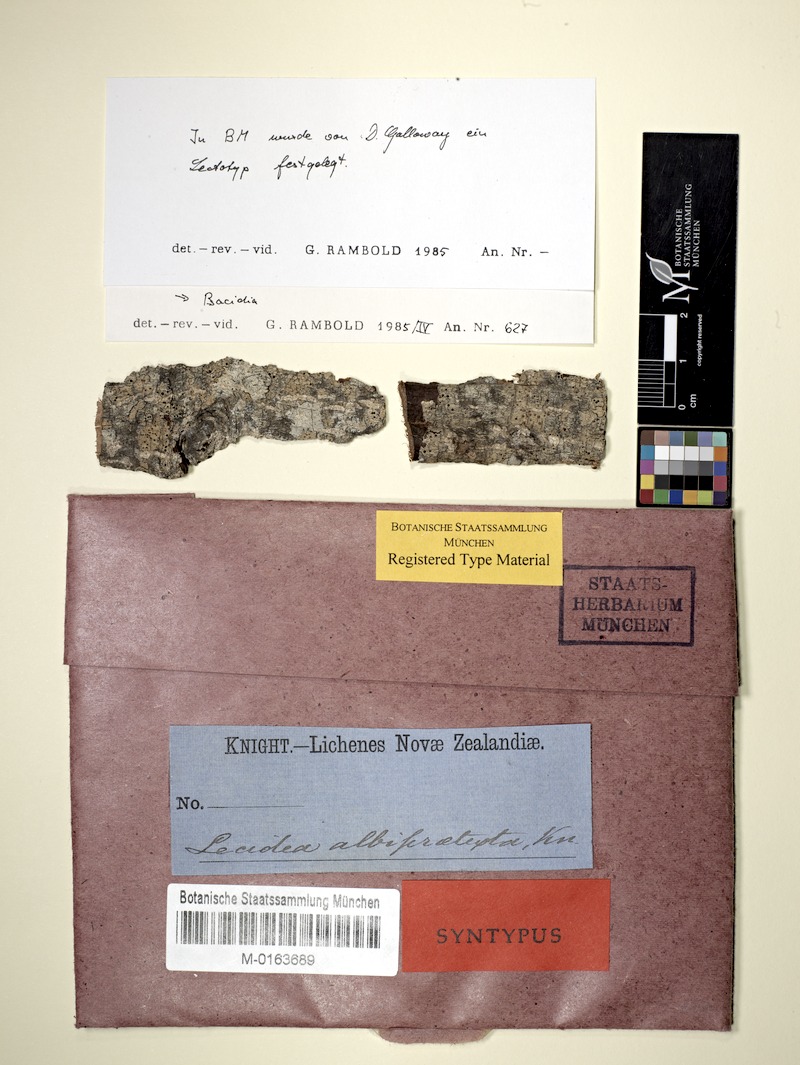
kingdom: Fungi
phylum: Ascomycota
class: Lecanoromycetes
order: Lecanorales
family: Ramalinaceae
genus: Biatora
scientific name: Biatora
